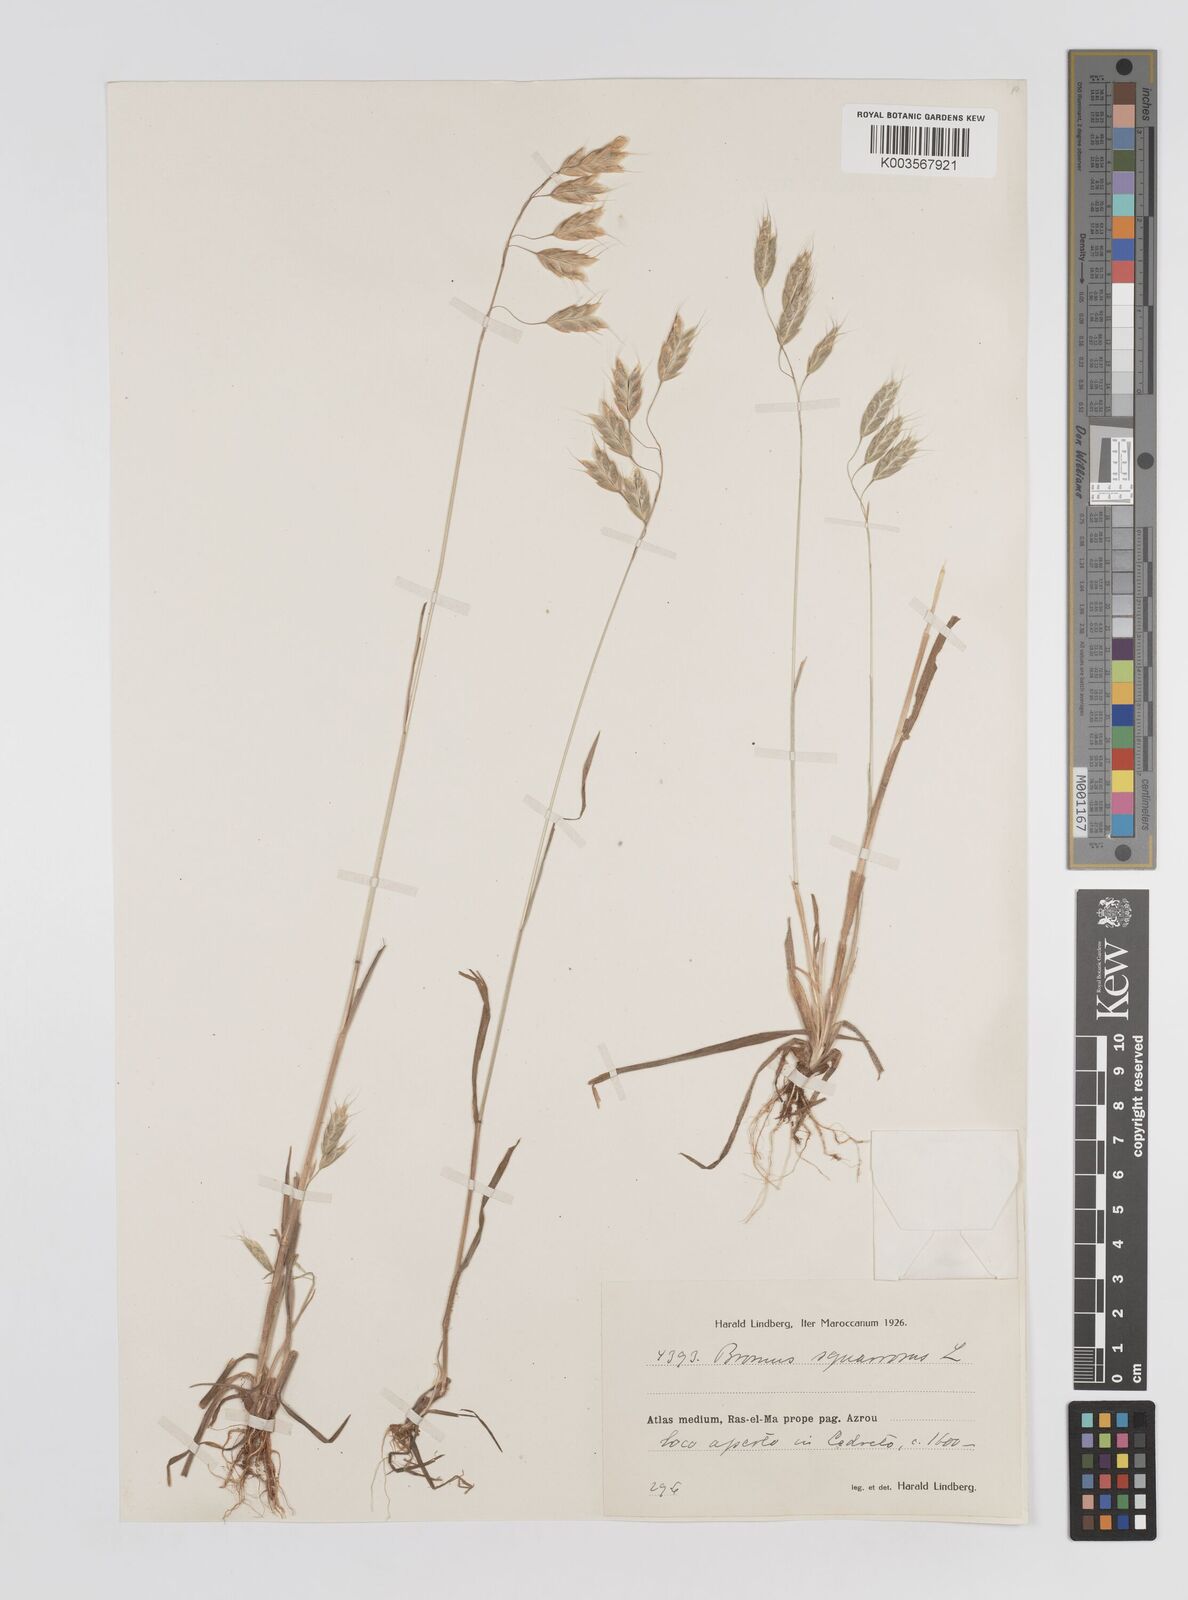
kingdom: Plantae
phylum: Tracheophyta
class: Liliopsida
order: Poales
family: Poaceae
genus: Bromus
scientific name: Bromus squarrosus
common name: Corn brome
